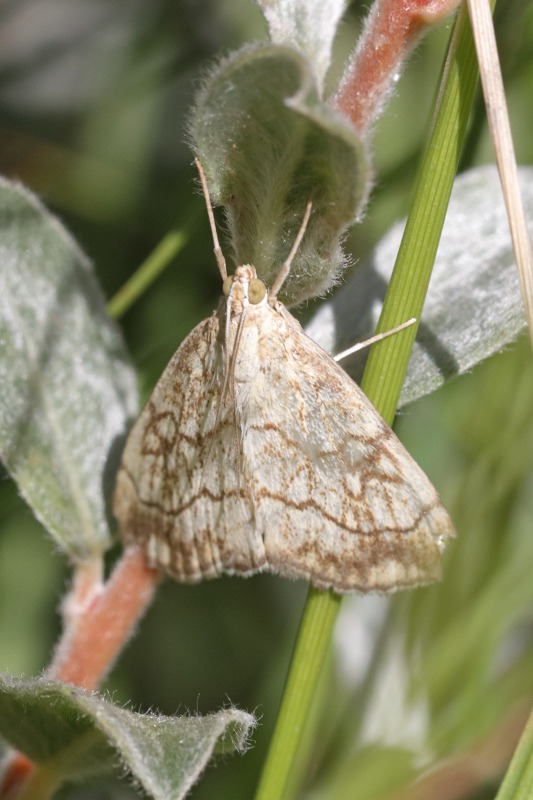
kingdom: Animalia
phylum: Arthropoda
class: Insecta
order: Lepidoptera
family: Crambidae
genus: Evergestis
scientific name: Evergestis pallidata
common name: Vinterkarsehalvmøl
